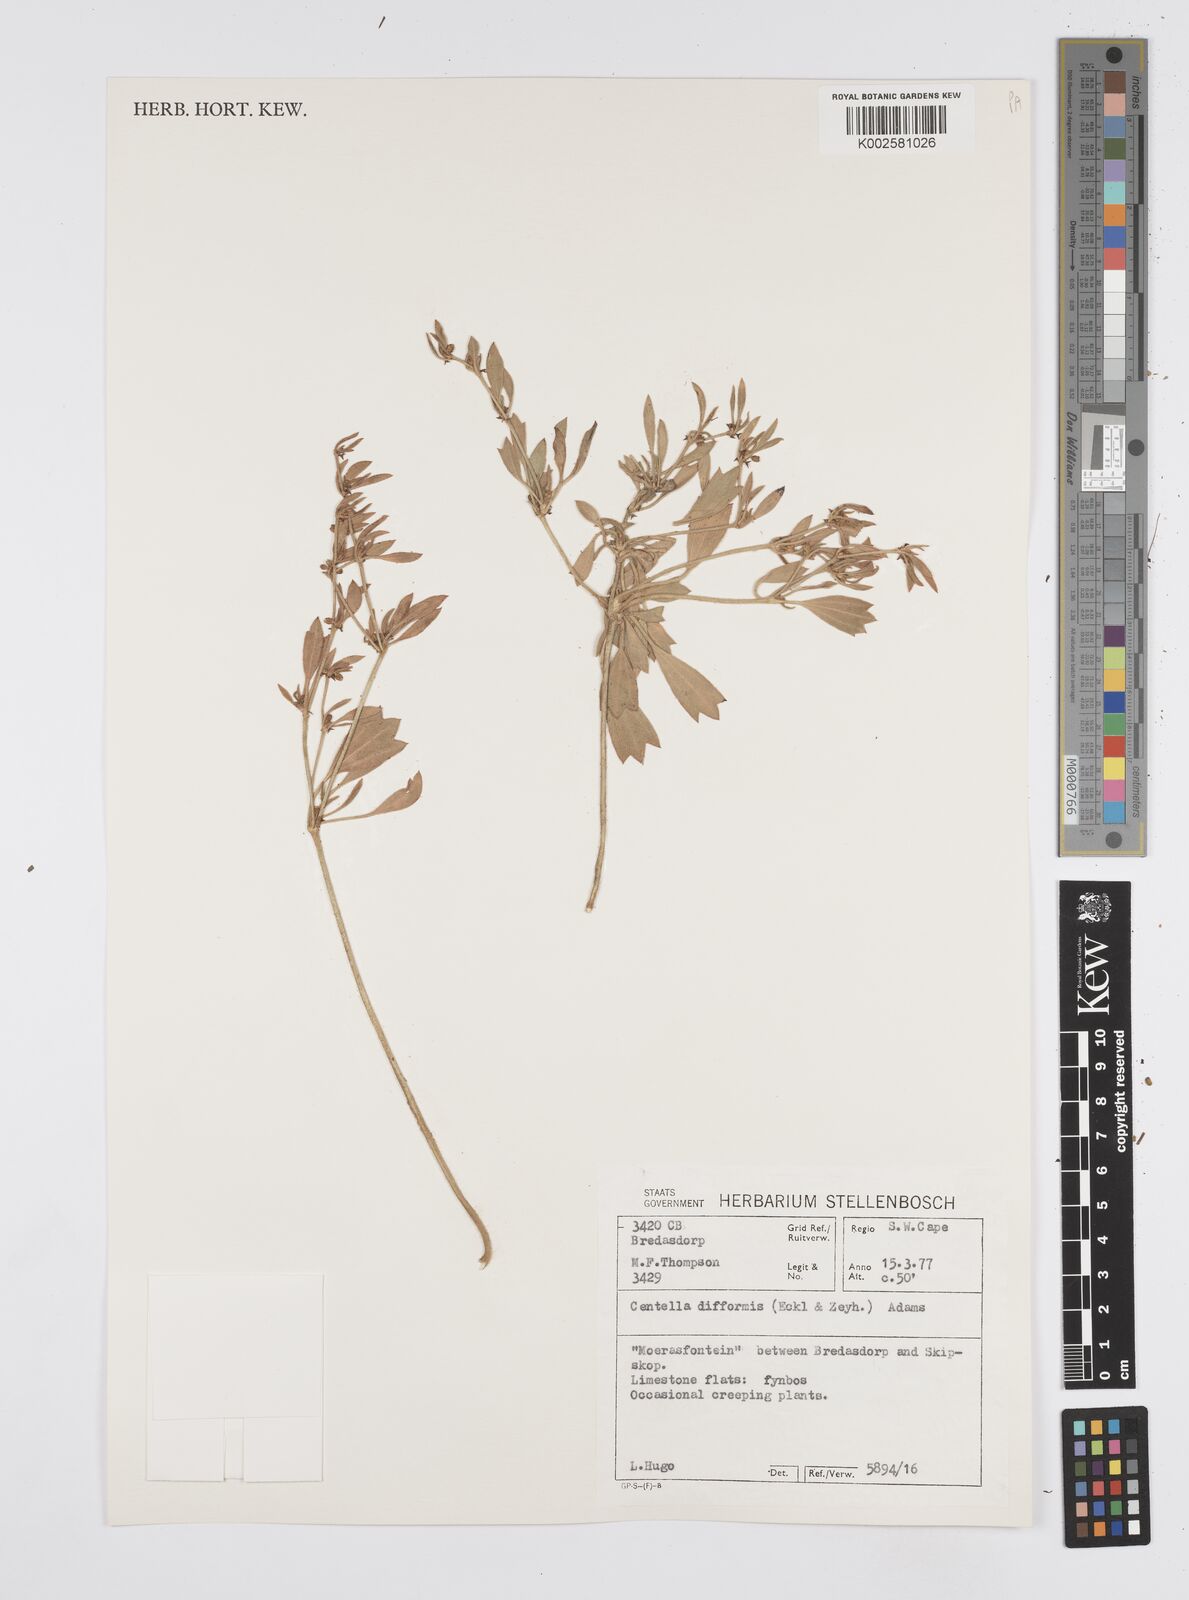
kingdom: Plantae
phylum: Tracheophyta
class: Magnoliopsida
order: Apiales
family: Apiaceae
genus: Centella
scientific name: Centella difformis
